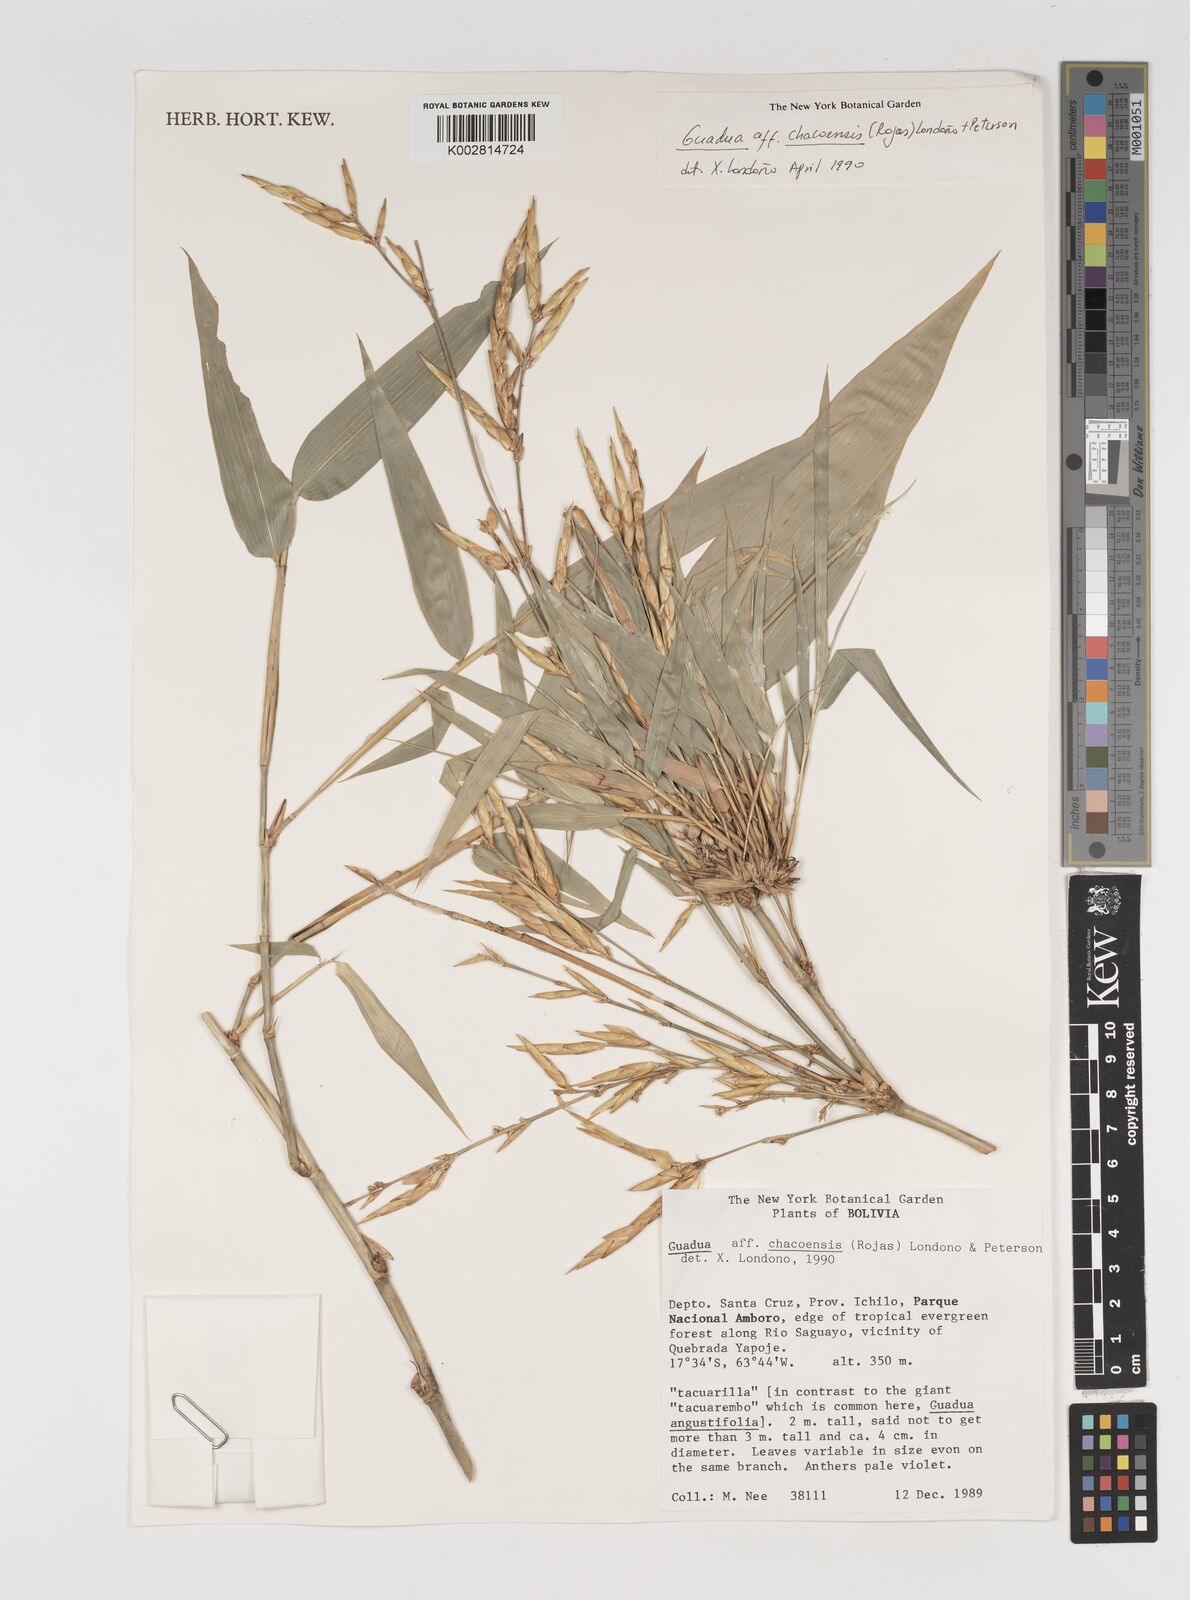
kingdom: Plantae
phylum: Tracheophyta
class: Liliopsida
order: Poales
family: Poaceae
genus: Guadua
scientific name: Guadua chacoensis
